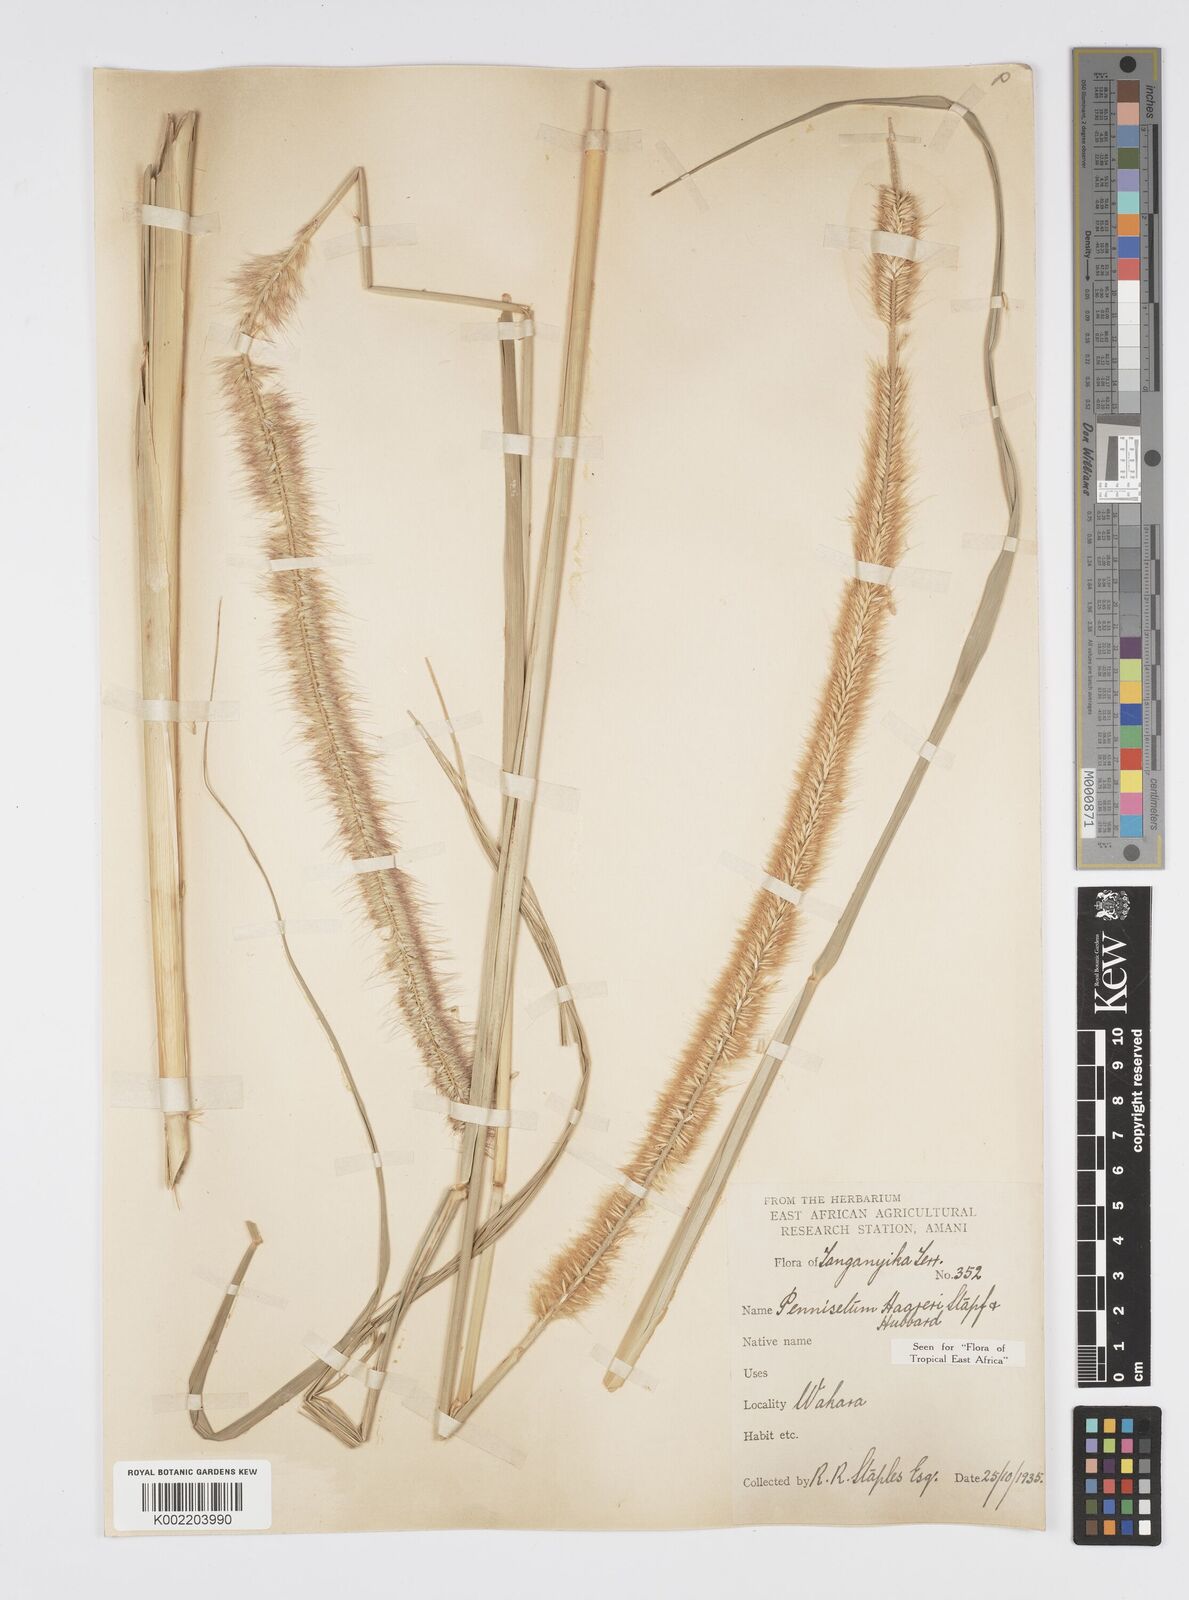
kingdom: Plantae
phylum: Tracheophyta
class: Liliopsida
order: Poales
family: Poaceae
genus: Cenchrus
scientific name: Cenchrus caudatus
